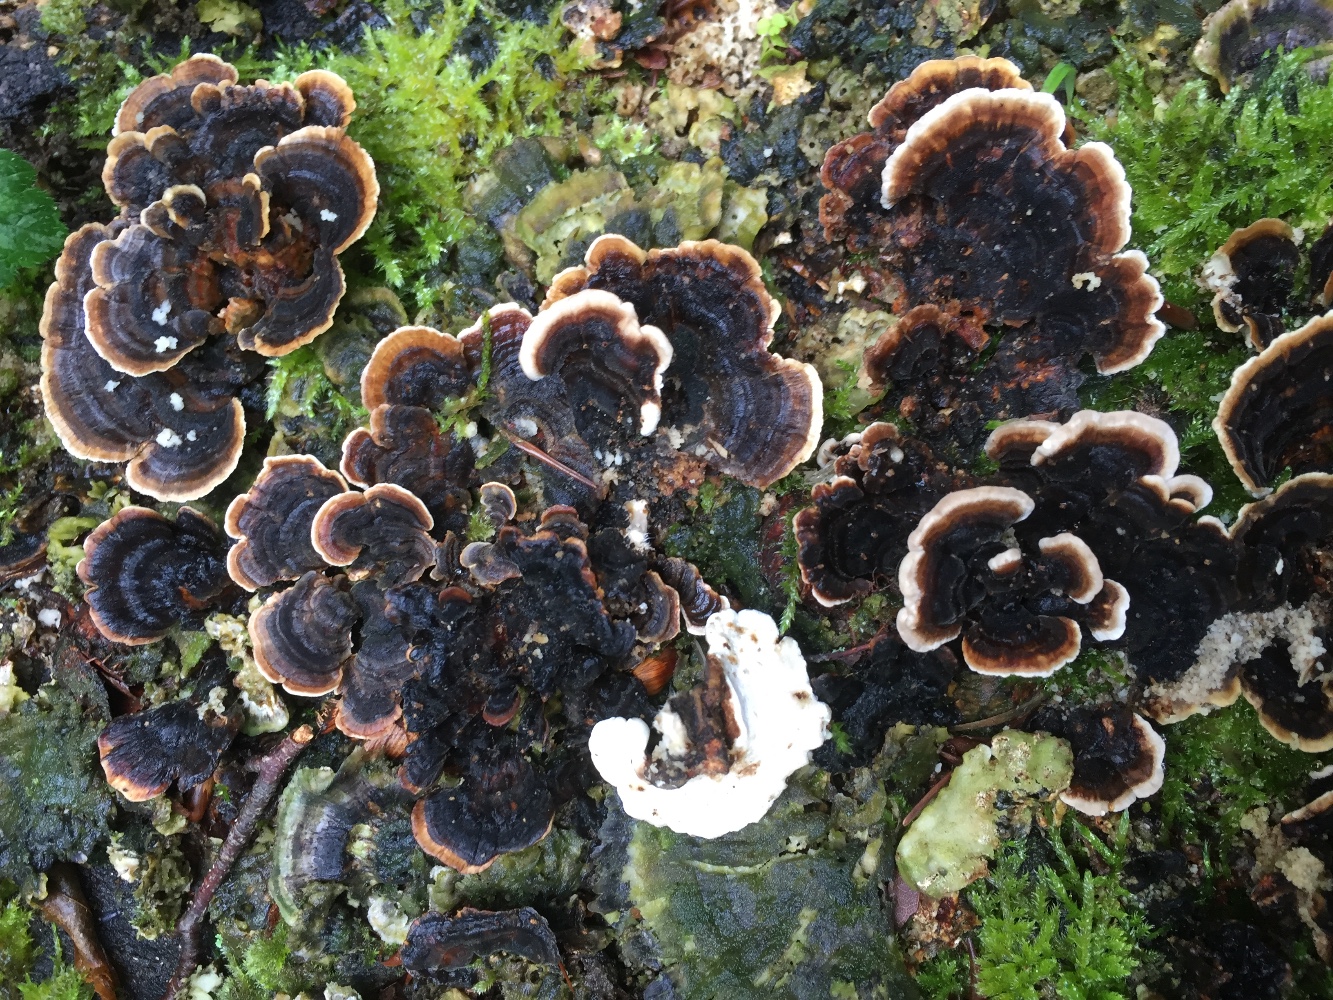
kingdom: Fungi
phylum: Basidiomycota
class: Agaricomycetes
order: Polyporales
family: Polyporaceae
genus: Trametes
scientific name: Trametes versicolor
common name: broget læderporesvamp
